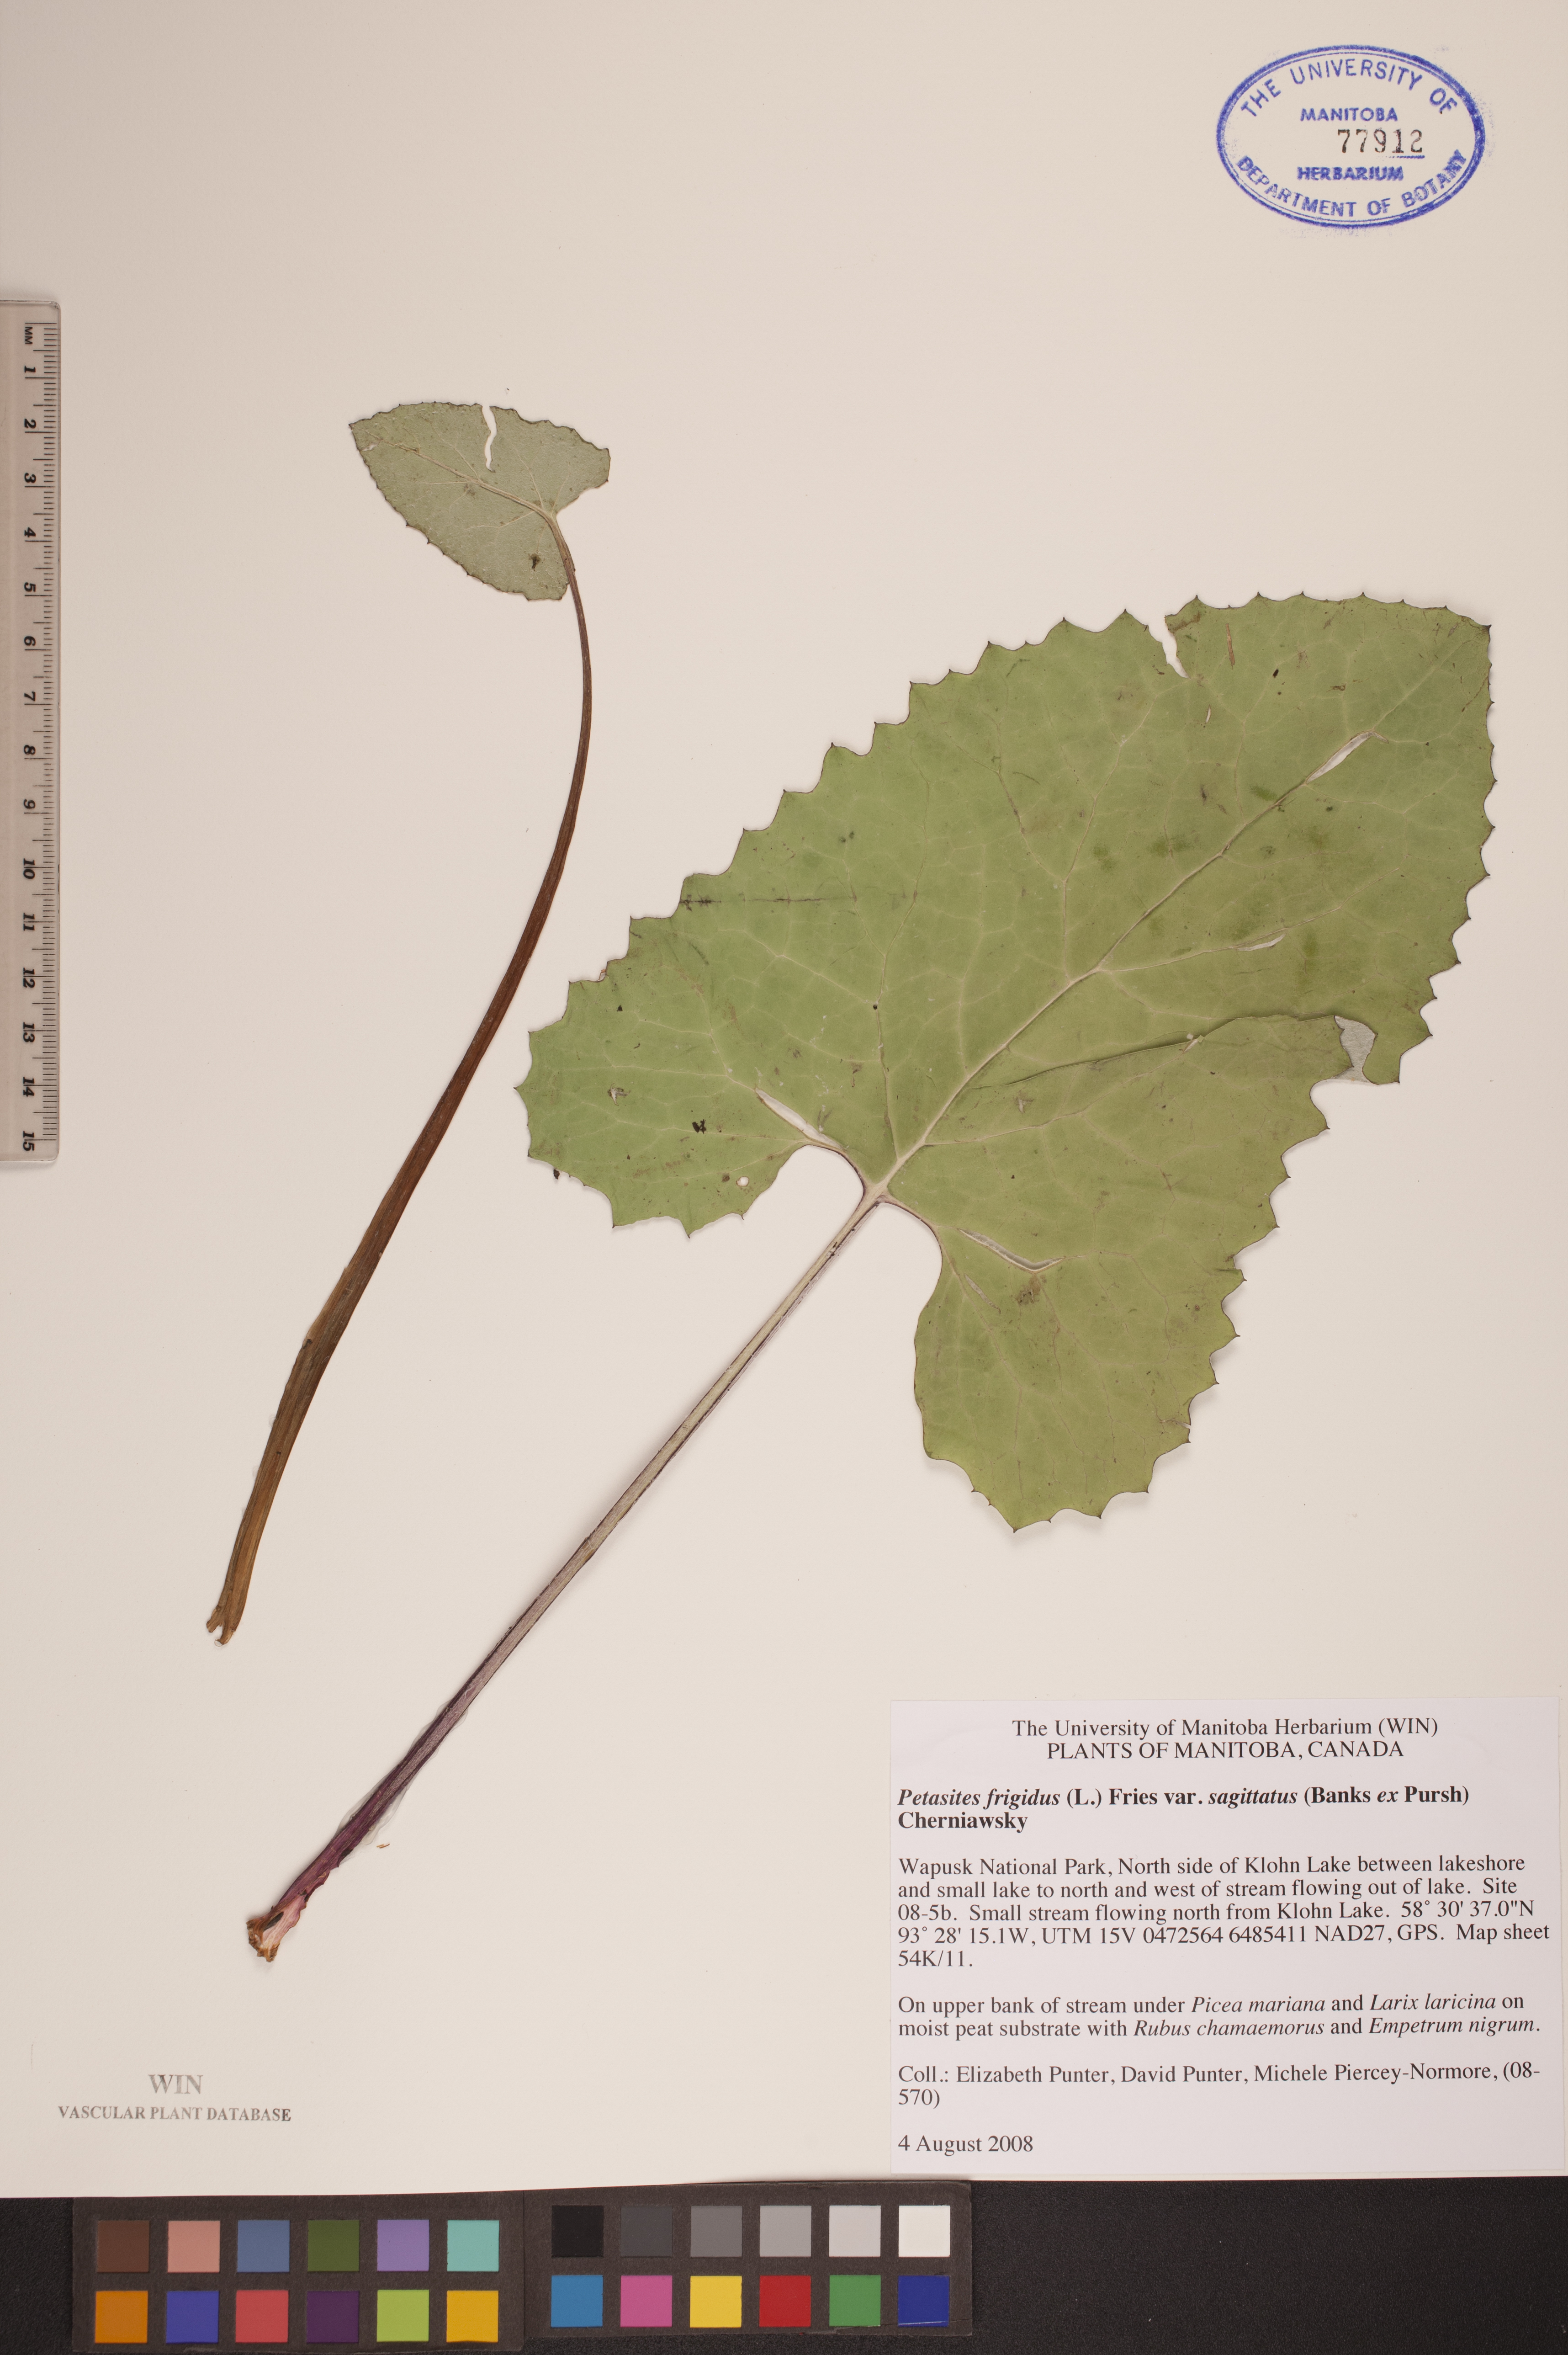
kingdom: Plantae
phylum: Tracheophyta
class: Magnoliopsida
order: Asterales
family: Asteraceae
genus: Petasites
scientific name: Petasites frigidus
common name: Arctic butterbur
